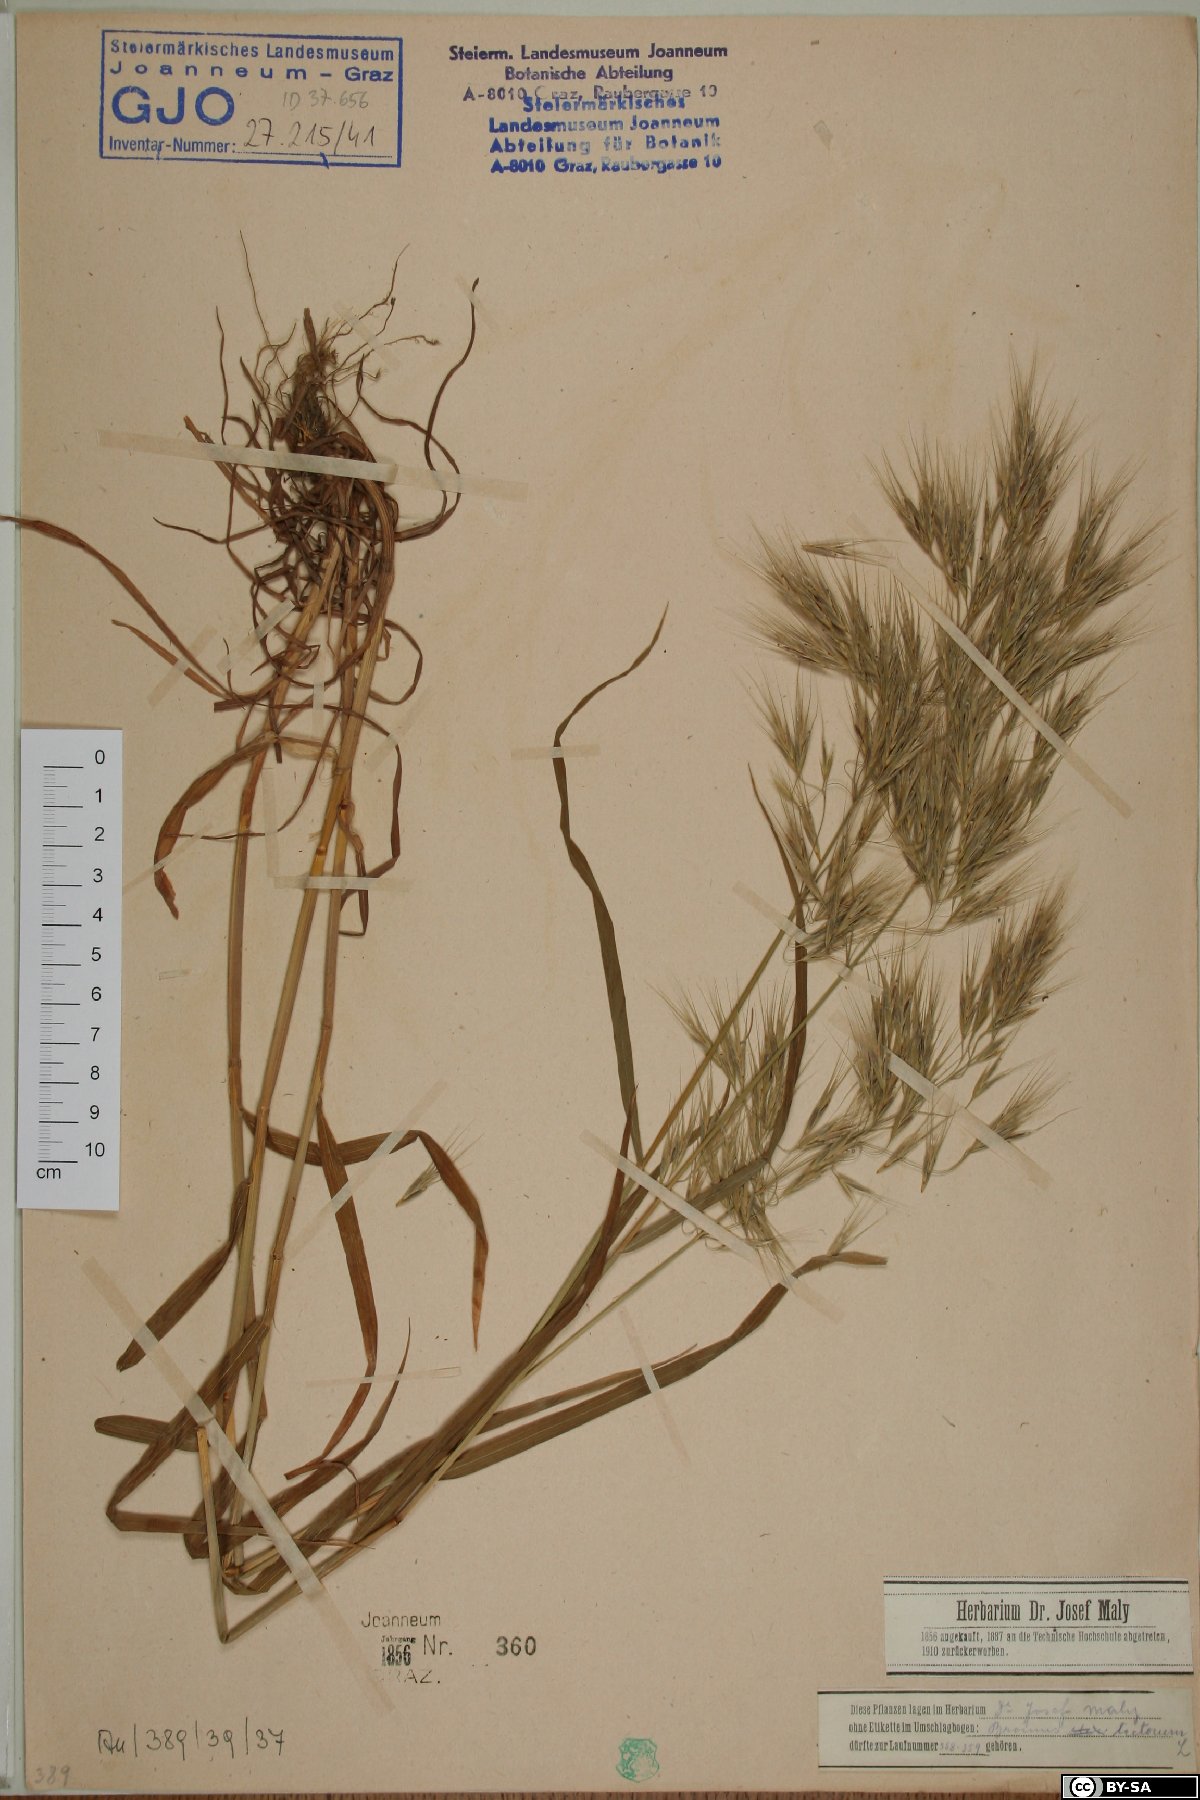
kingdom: Plantae
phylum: Tracheophyta
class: Liliopsida
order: Poales
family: Poaceae
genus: Bromus
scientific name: Bromus tectorum
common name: Cheatgrass
